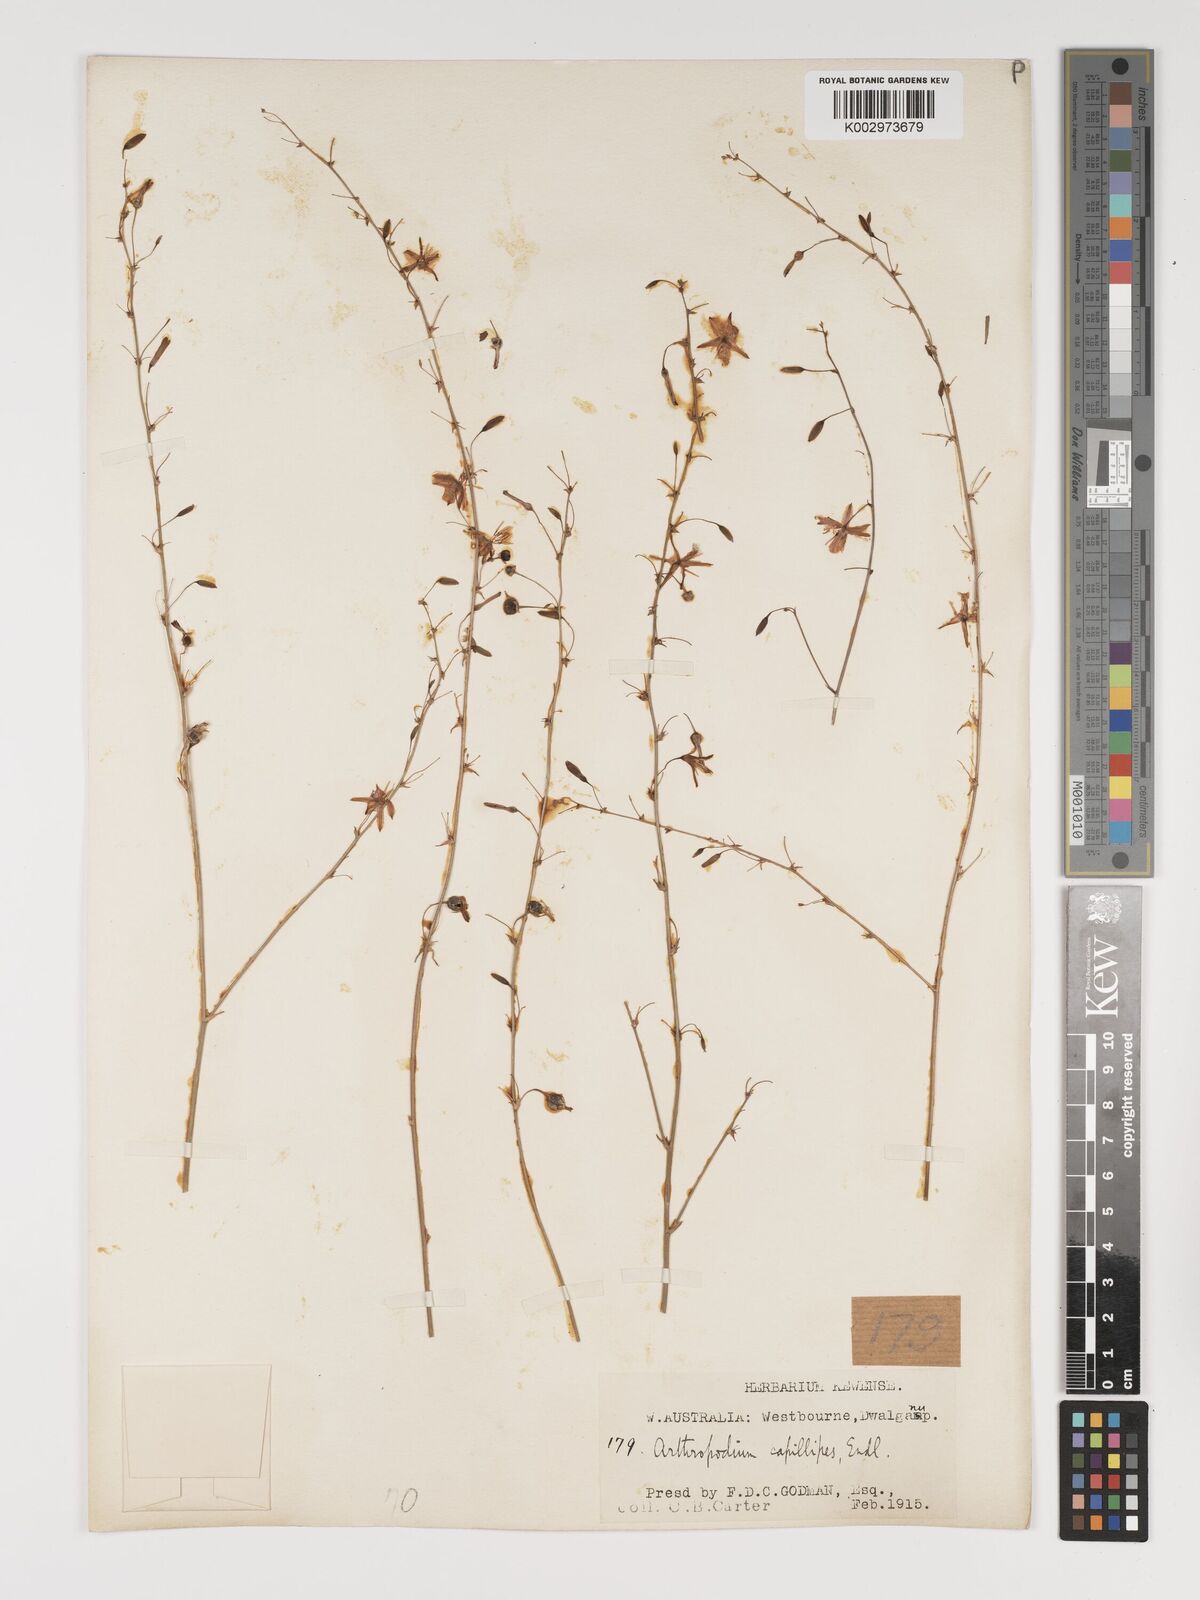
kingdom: Plantae
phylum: Tracheophyta
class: Liliopsida
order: Asparagales
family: Asparagaceae
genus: Dichopogon
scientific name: Dichopogon capillipes
